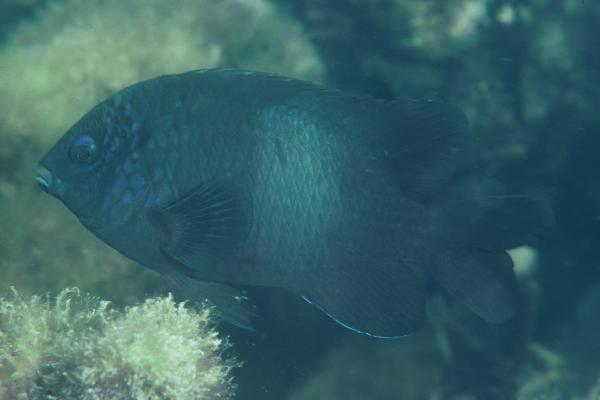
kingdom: Animalia
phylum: Chordata
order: Perciformes
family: Pomacentridae
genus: Stegastes
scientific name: Stegastes limbatus
